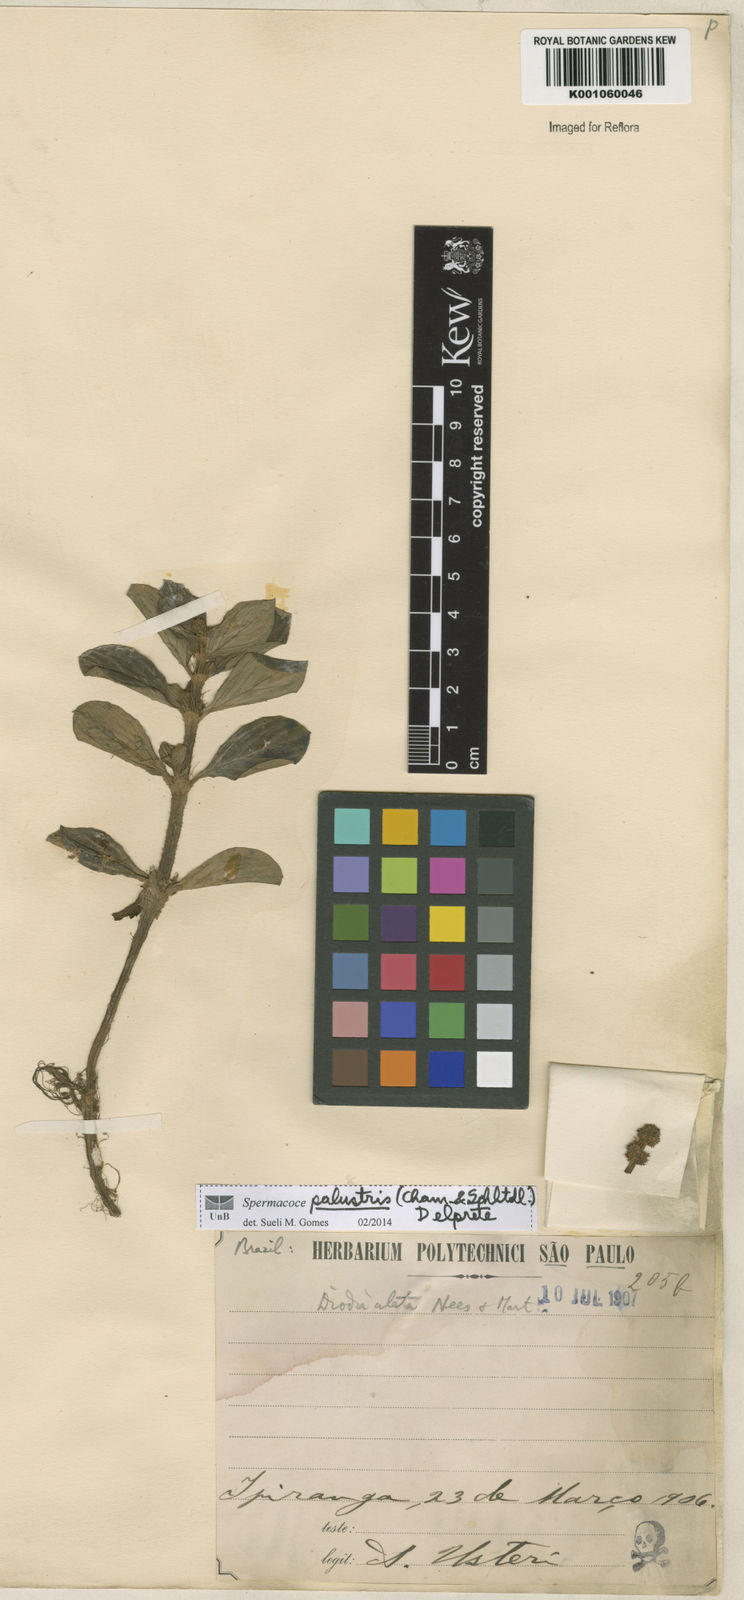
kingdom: Plantae
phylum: Tracheophyta
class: Magnoliopsida
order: Gentianales
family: Rubiaceae
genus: Galianthe
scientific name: Galianthe palustris
